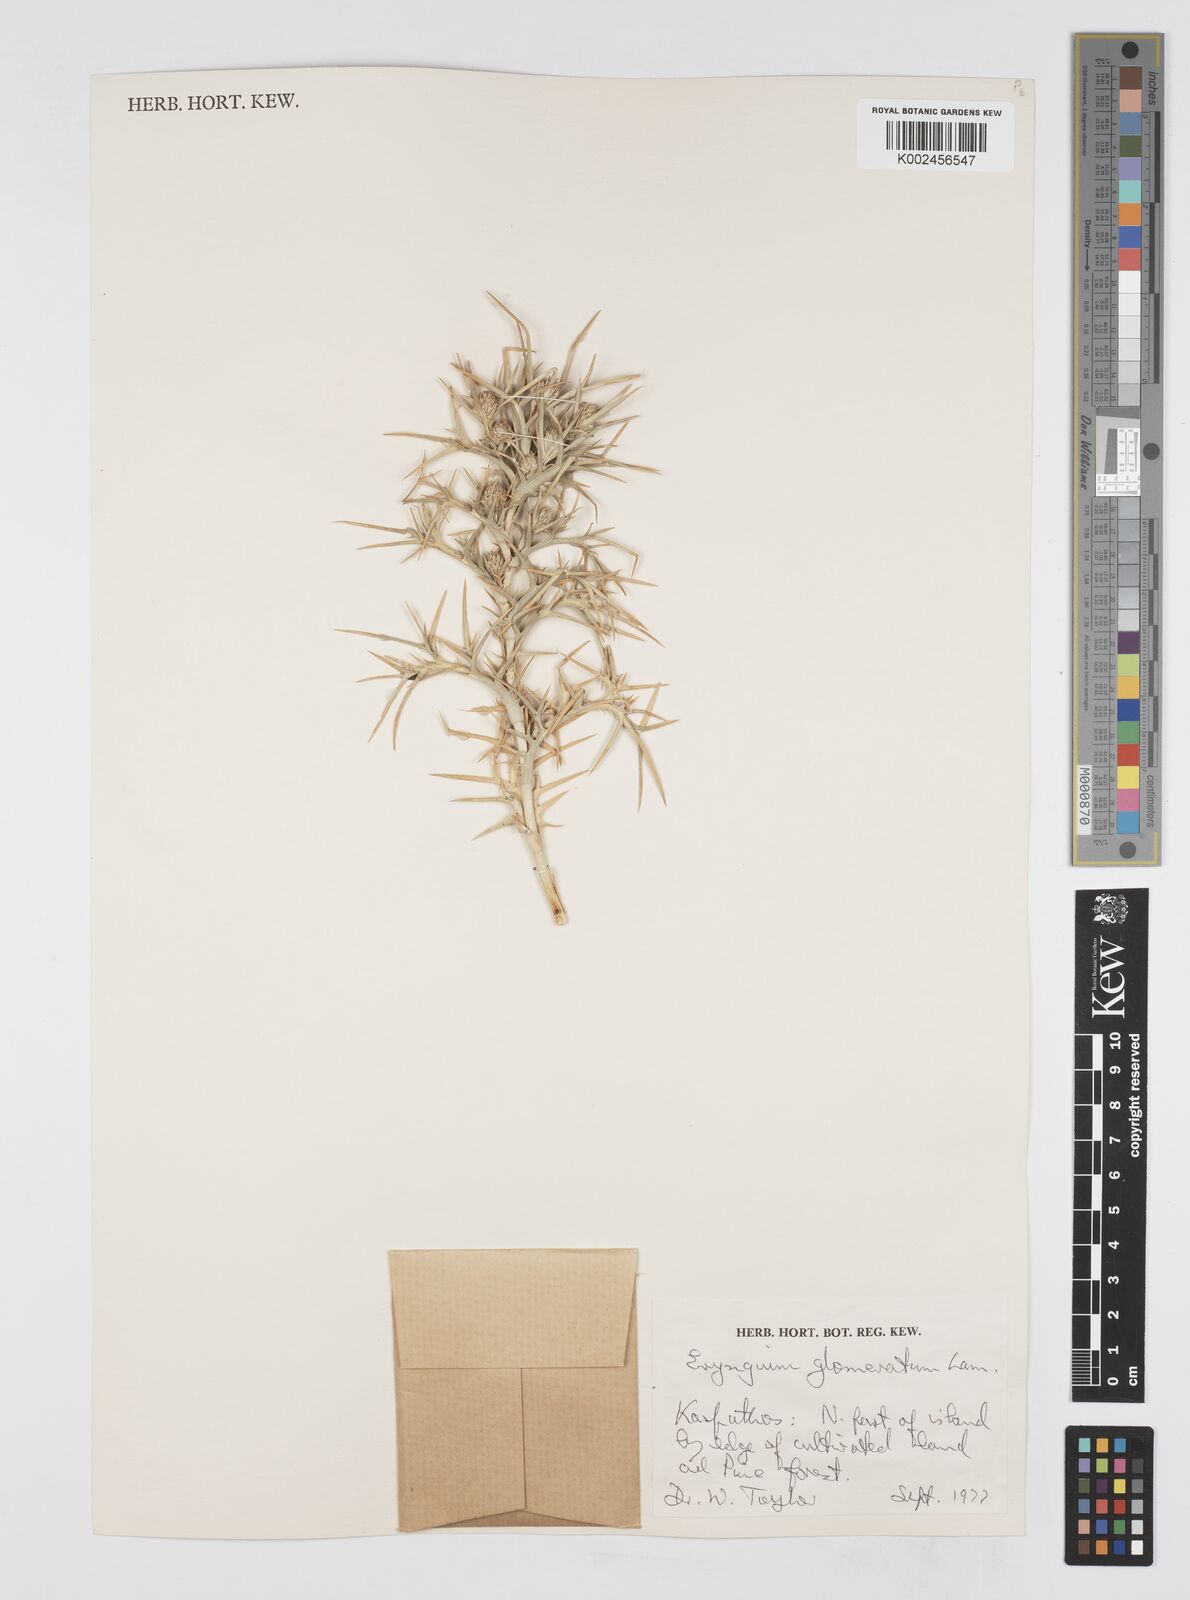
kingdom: Plantae
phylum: Tracheophyta
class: Magnoliopsida
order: Apiales
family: Apiaceae
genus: Eryngium
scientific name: Eryngium glomeratum
